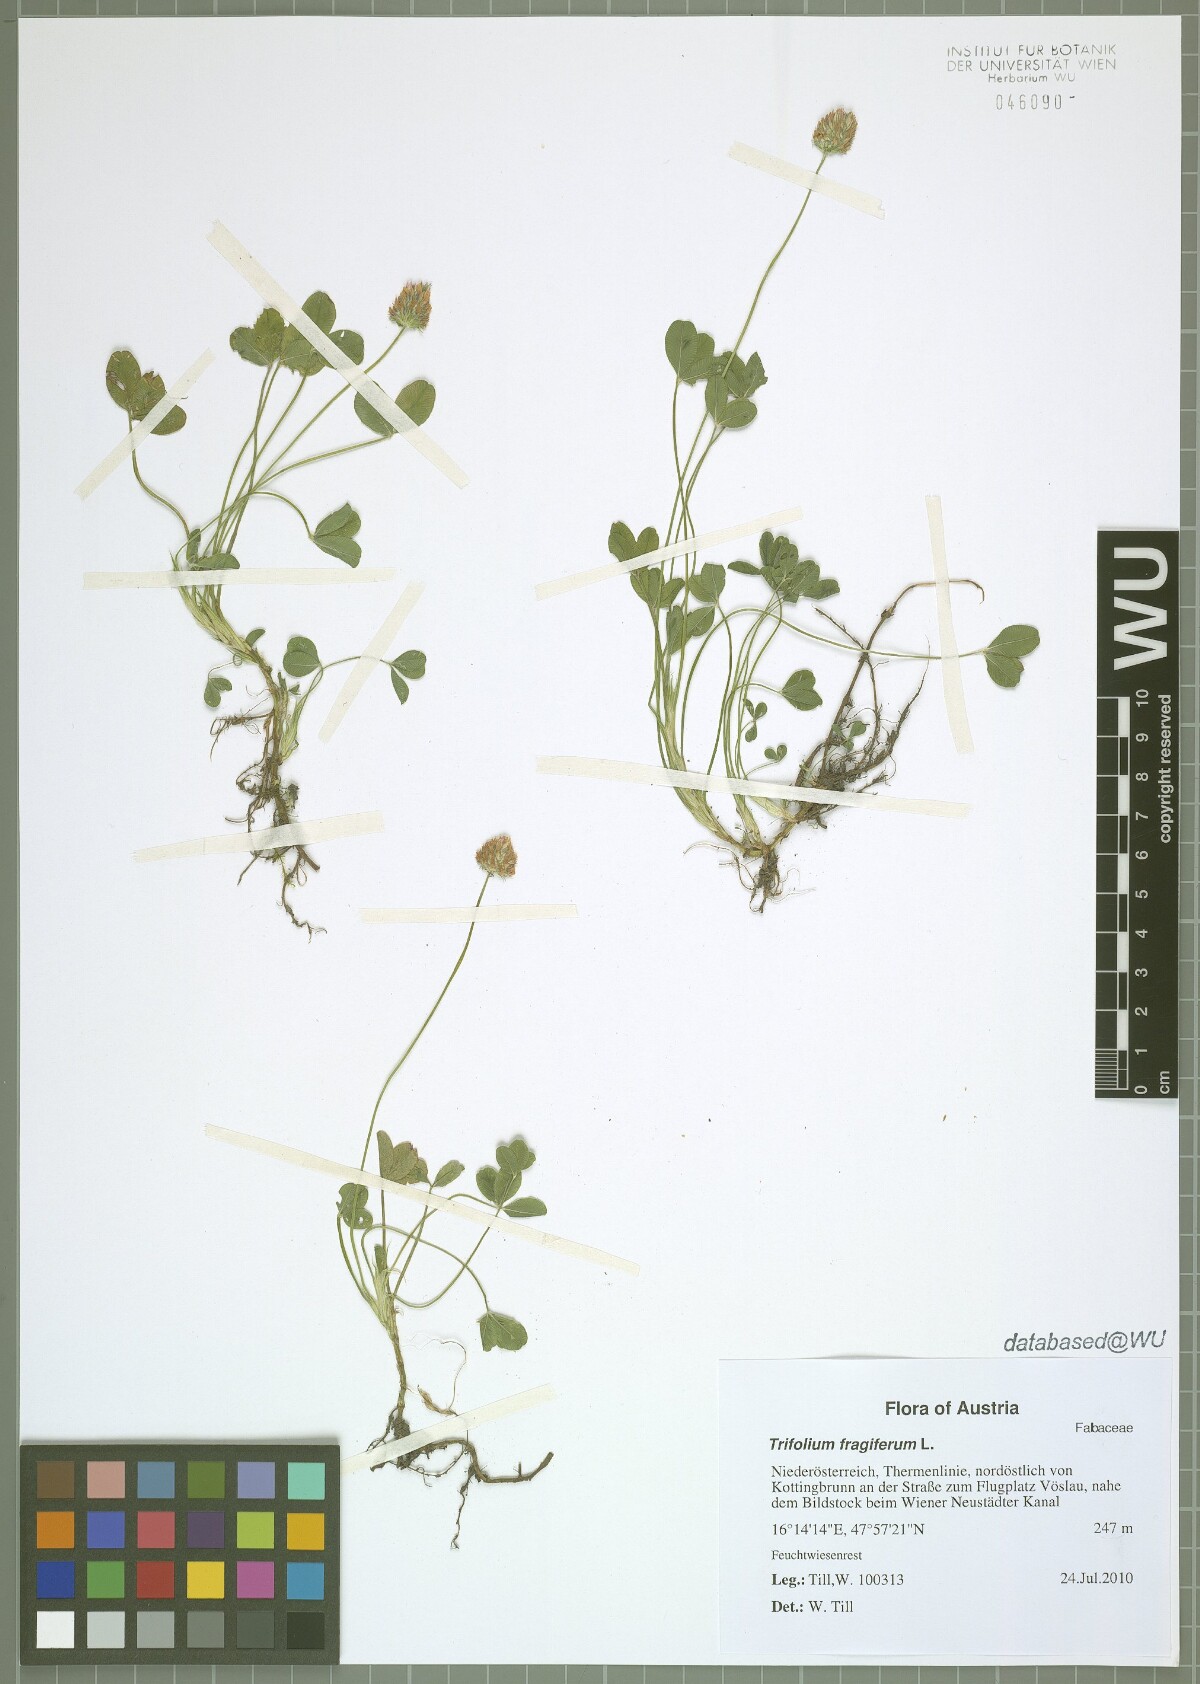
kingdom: Plantae
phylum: Tracheophyta
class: Magnoliopsida
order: Fabales
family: Fabaceae
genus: Trifolium
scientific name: Trifolium fragiferum
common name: Strawberry clover
